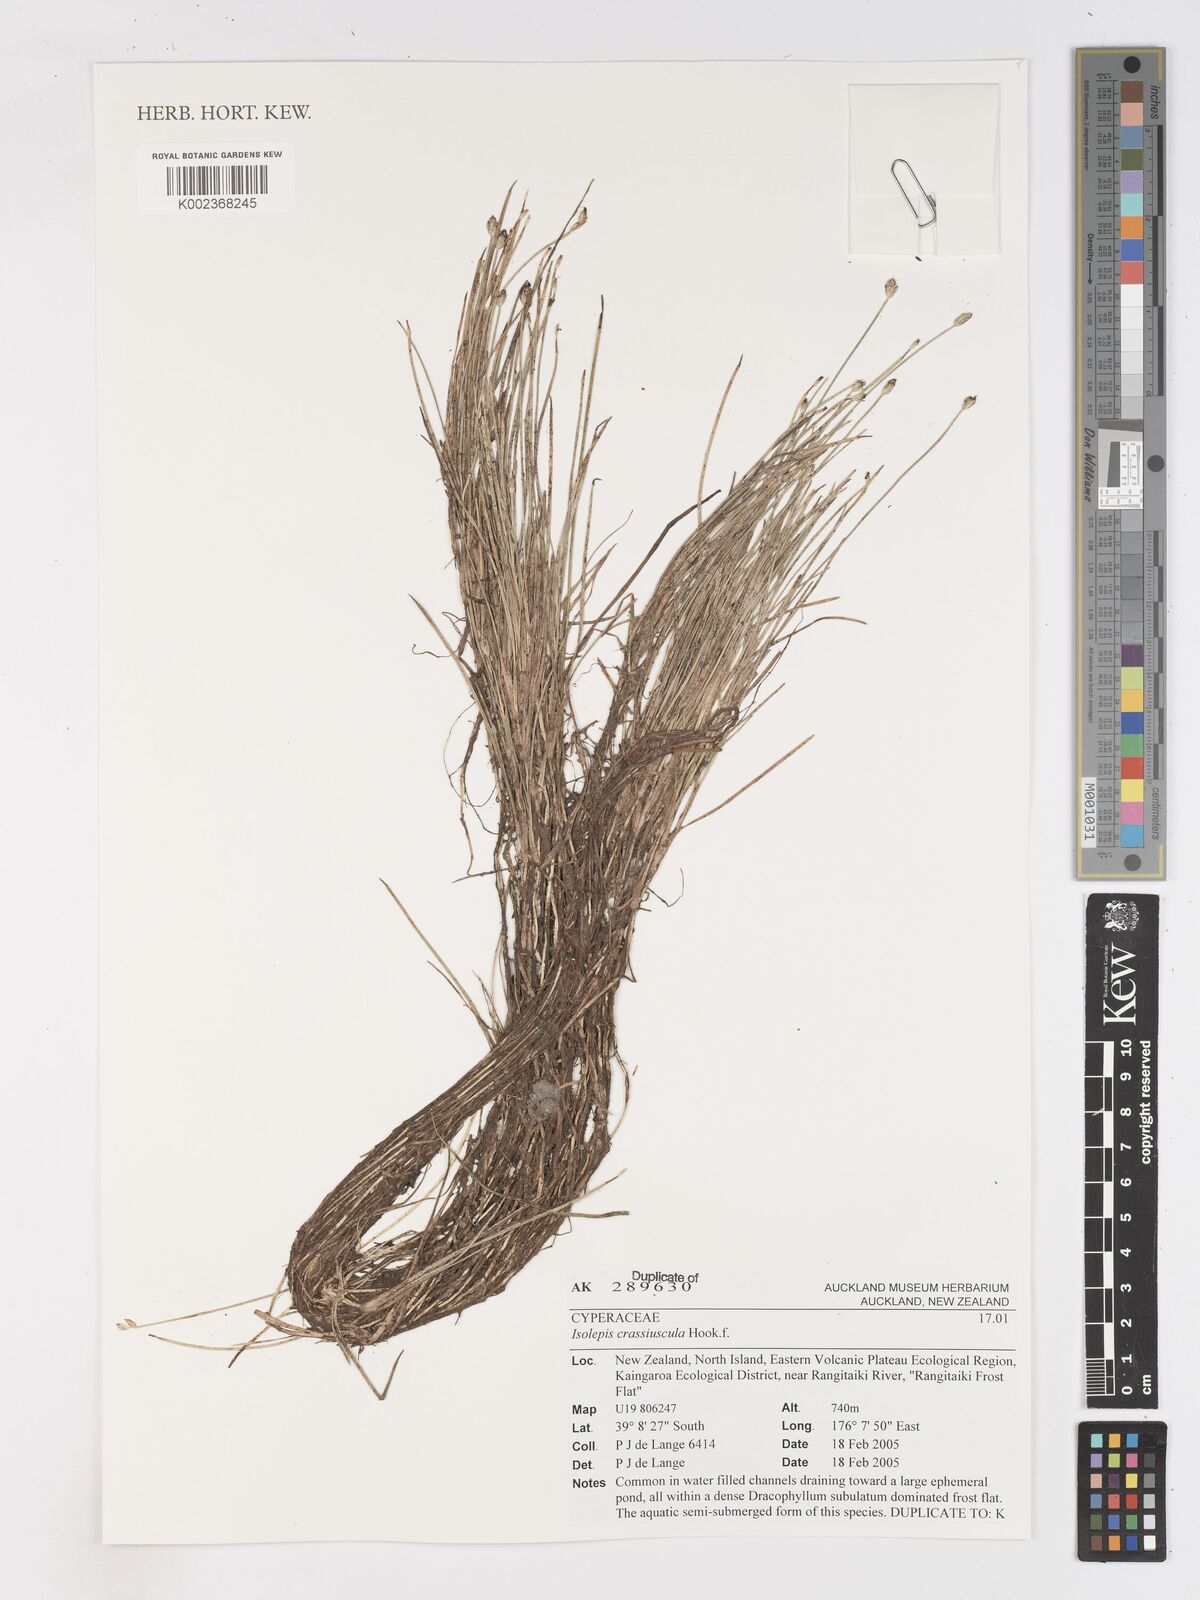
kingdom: Plantae
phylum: Tracheophyta
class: Liliopsida
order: Poales
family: Cyperaceae
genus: Isolepis
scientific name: Isolepis crassiuscula
